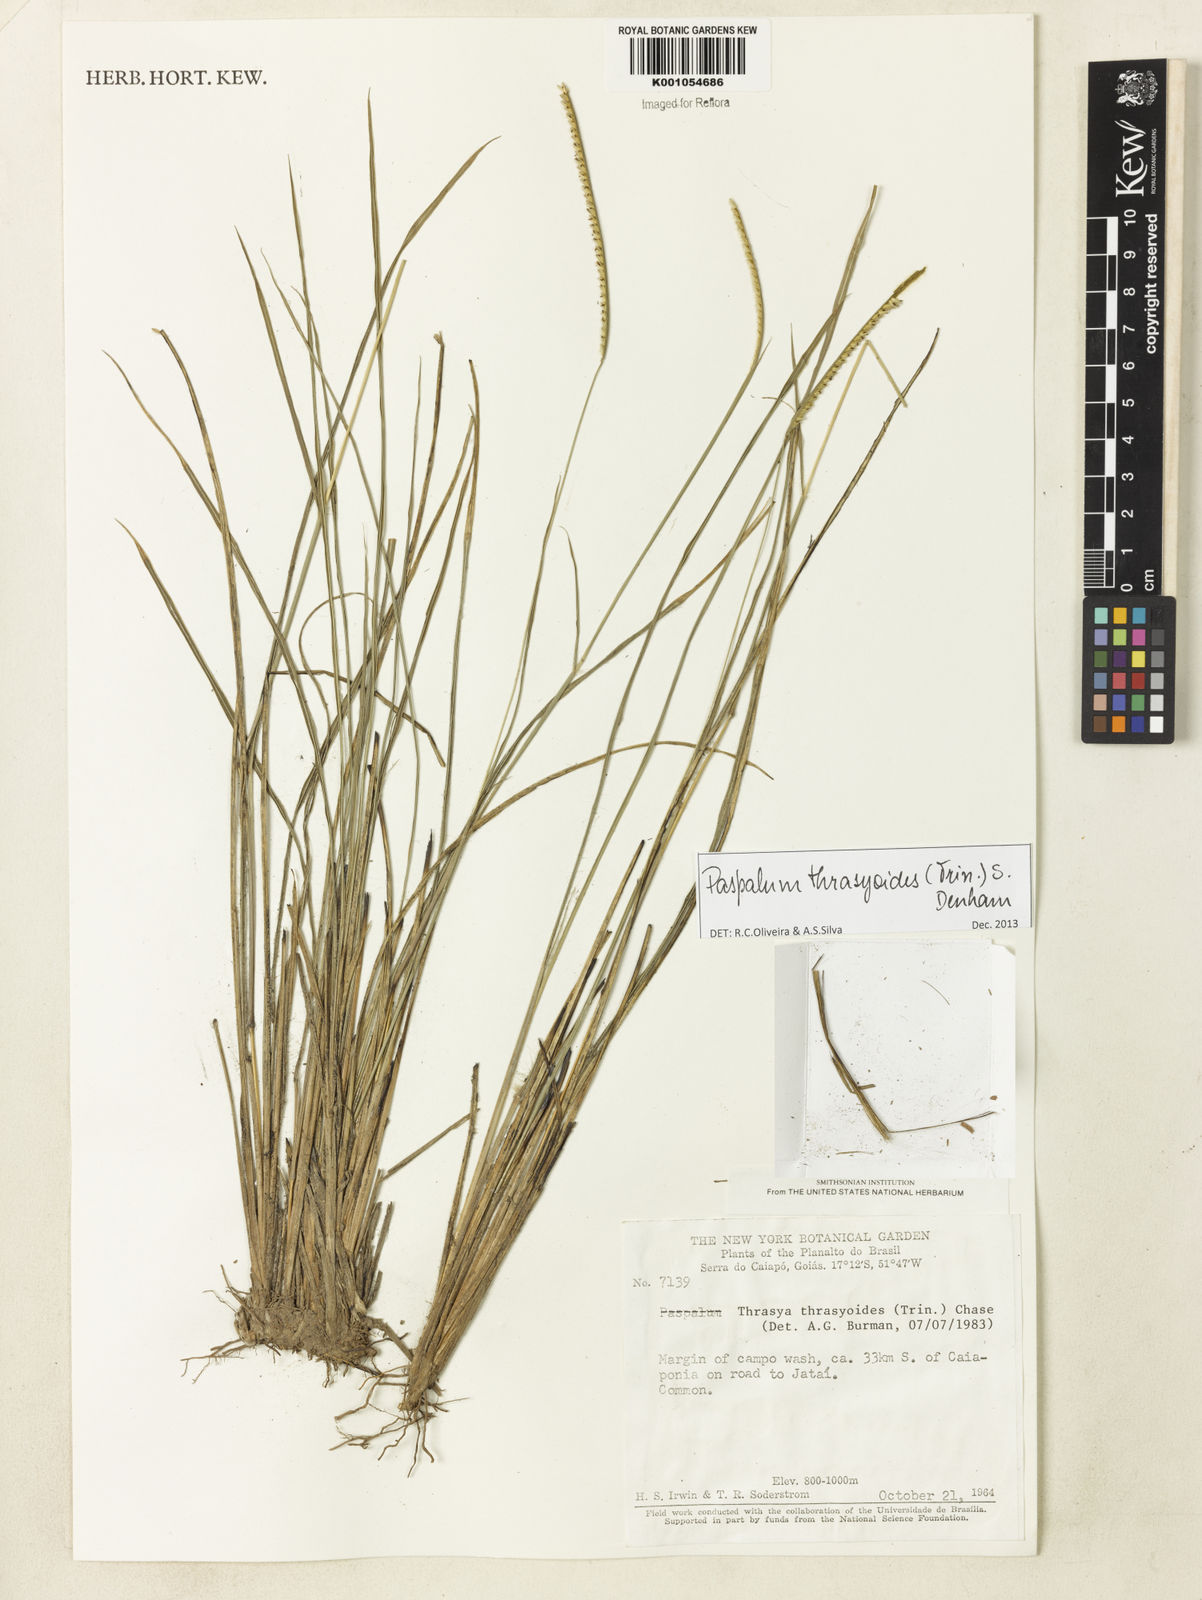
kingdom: Plantae
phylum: Tracheophyta
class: Liliopsida
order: Poales
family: Poaceae
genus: Paspalum
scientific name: Paspalum thrasyoides
